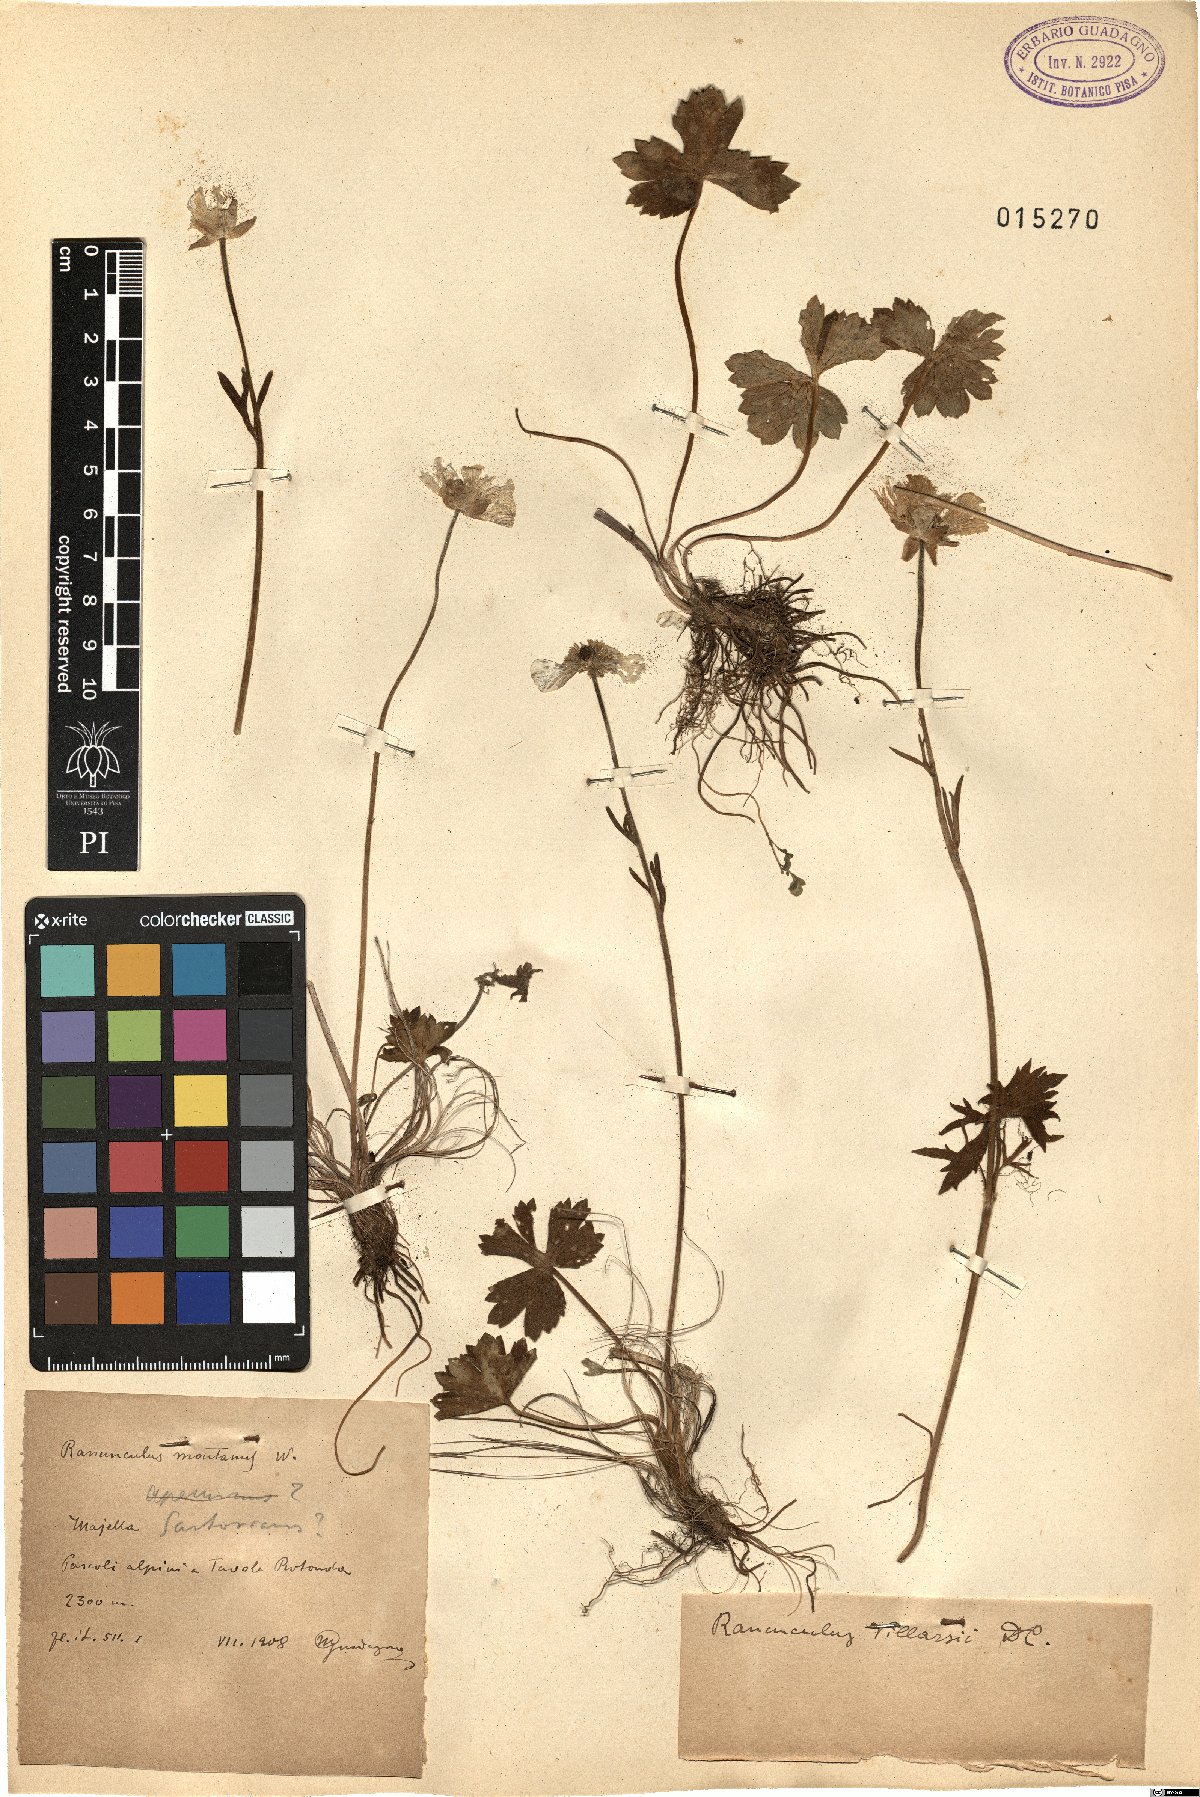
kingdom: Plantae
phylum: Tracheophyta
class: Magnoliopsida
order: Ranunculales
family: Ranunculaceae
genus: Ranunculus
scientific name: Ranunculus apenninus
